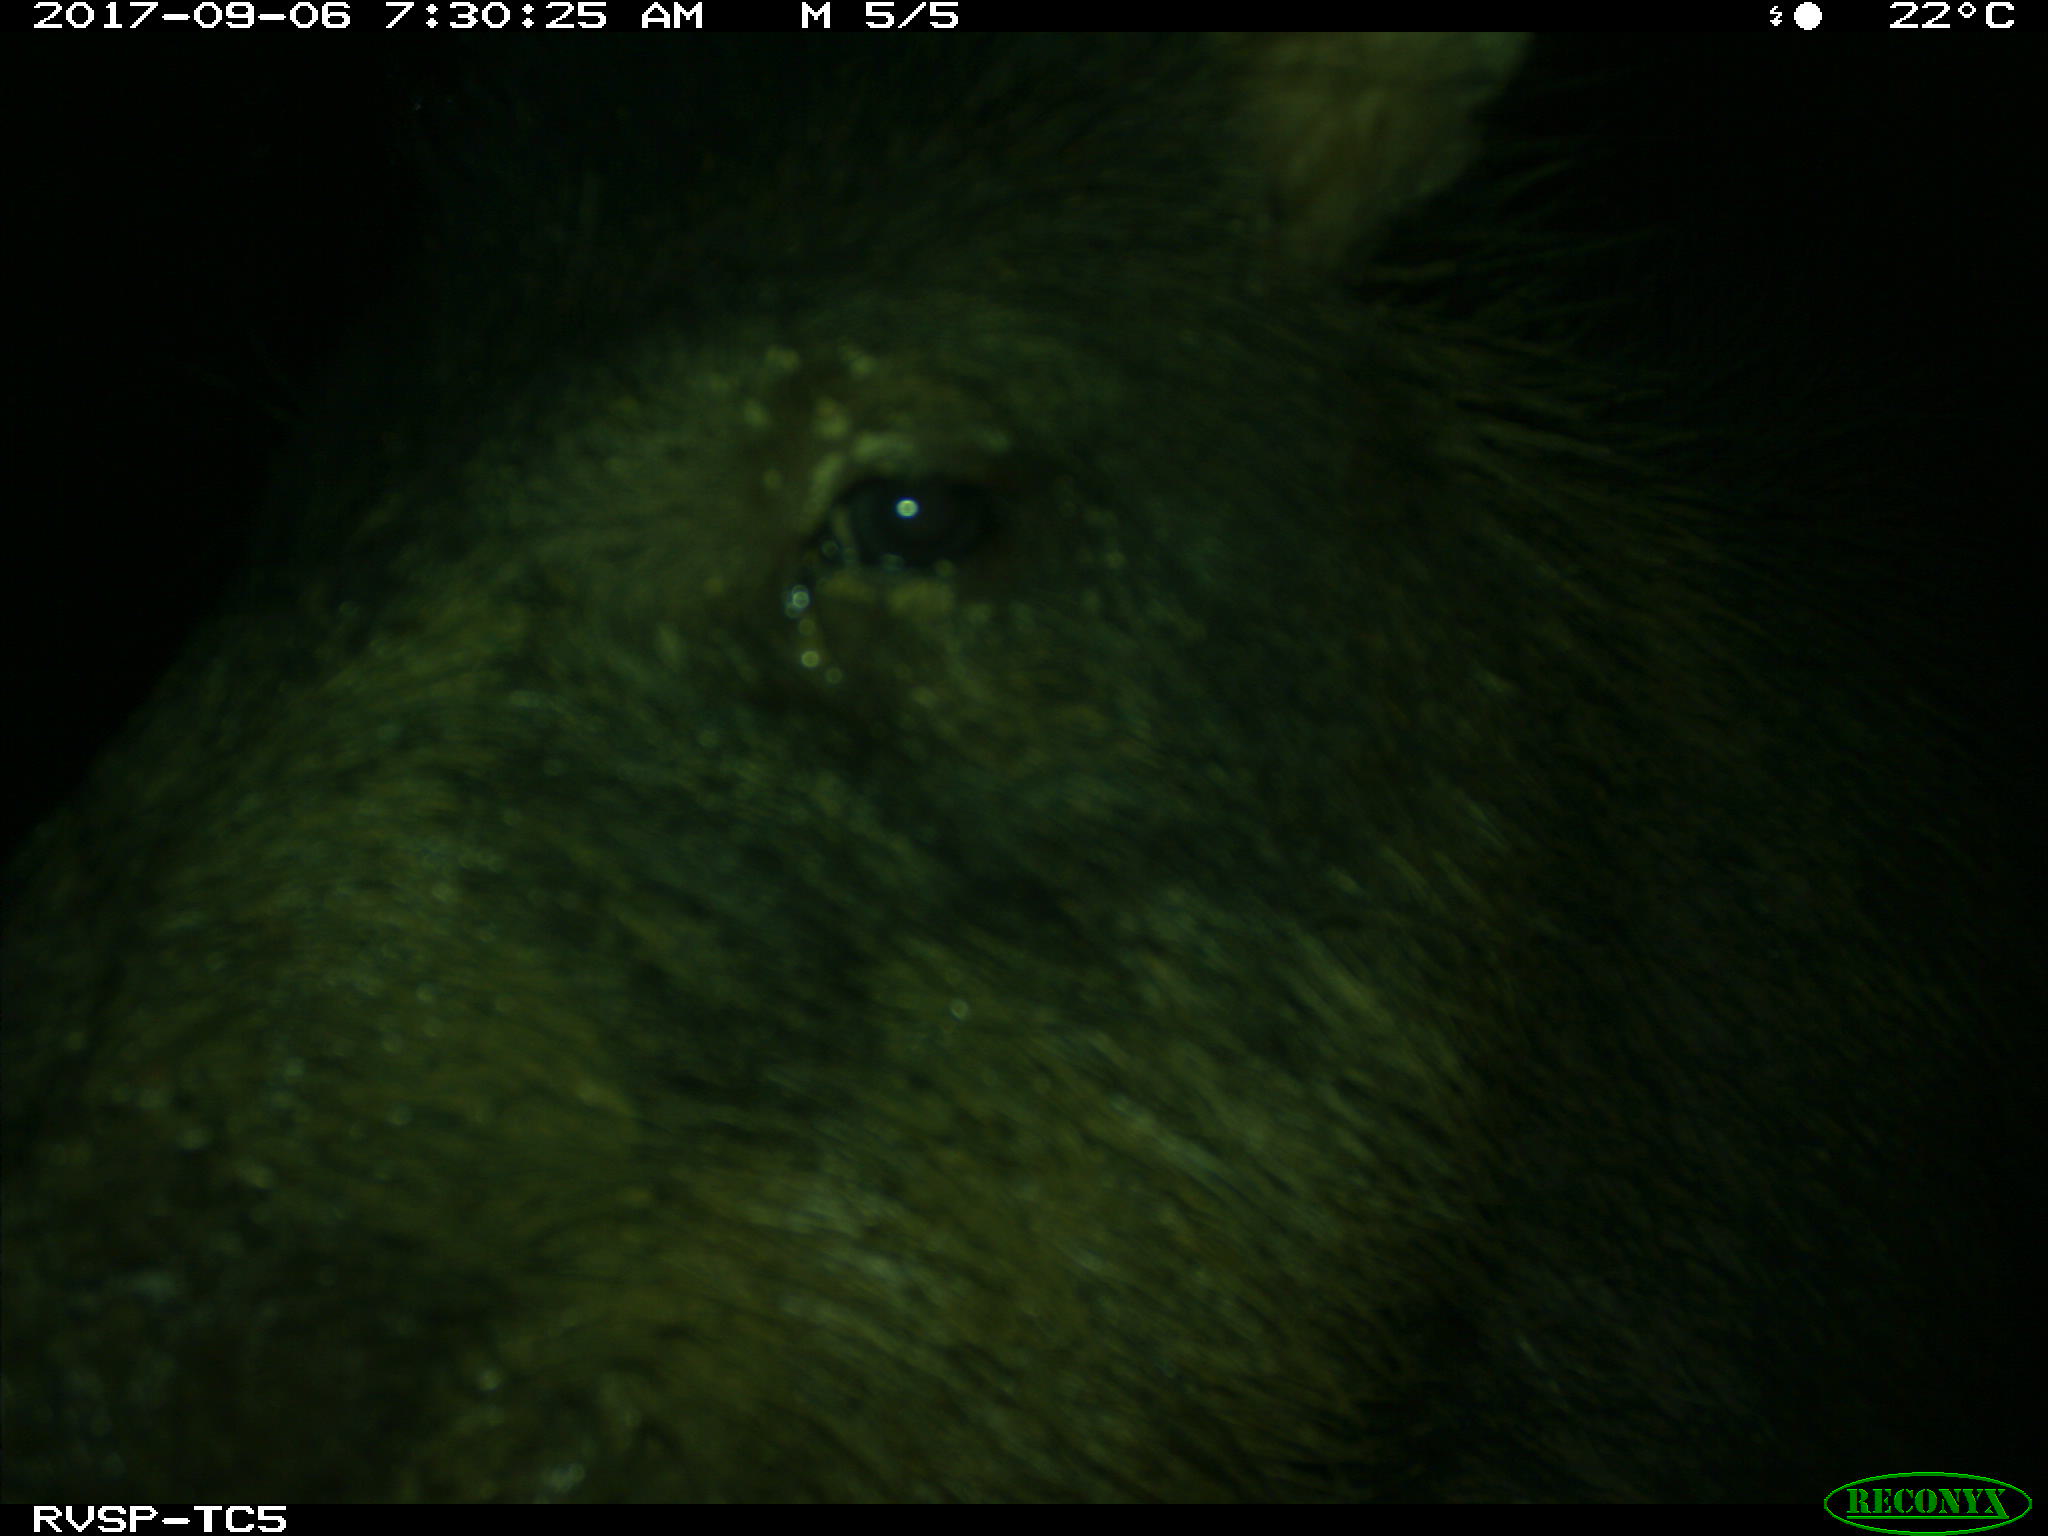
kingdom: Animalia
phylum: Chordata
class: Mammalia
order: Artiodactyla
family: Tayassuidae
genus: Tayassu
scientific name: Tayassu pecari
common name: White-lipped peccary
